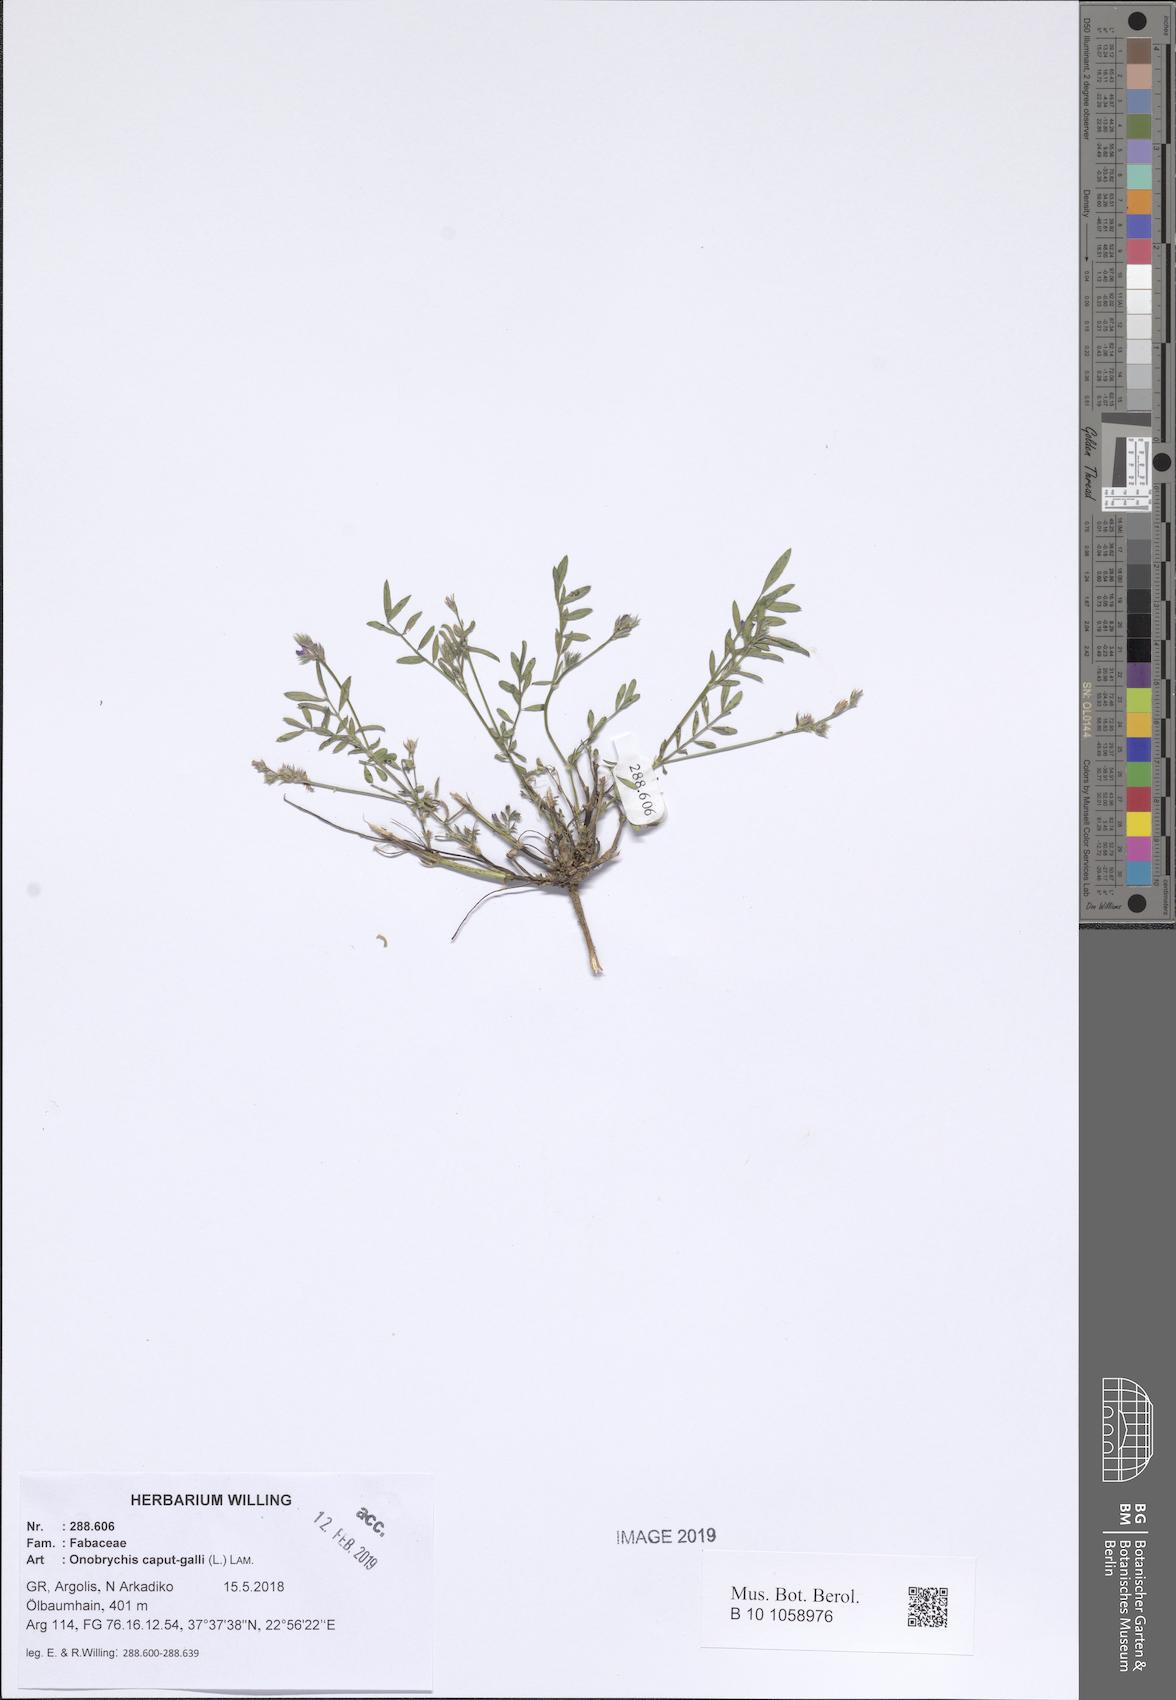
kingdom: Plantae
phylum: Tracheophyta
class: Magnoliopsida
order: Fabales
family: Fabaceae
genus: Onobrychis
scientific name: Onobrychis caput-galli
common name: Cockscomb sainfoin
